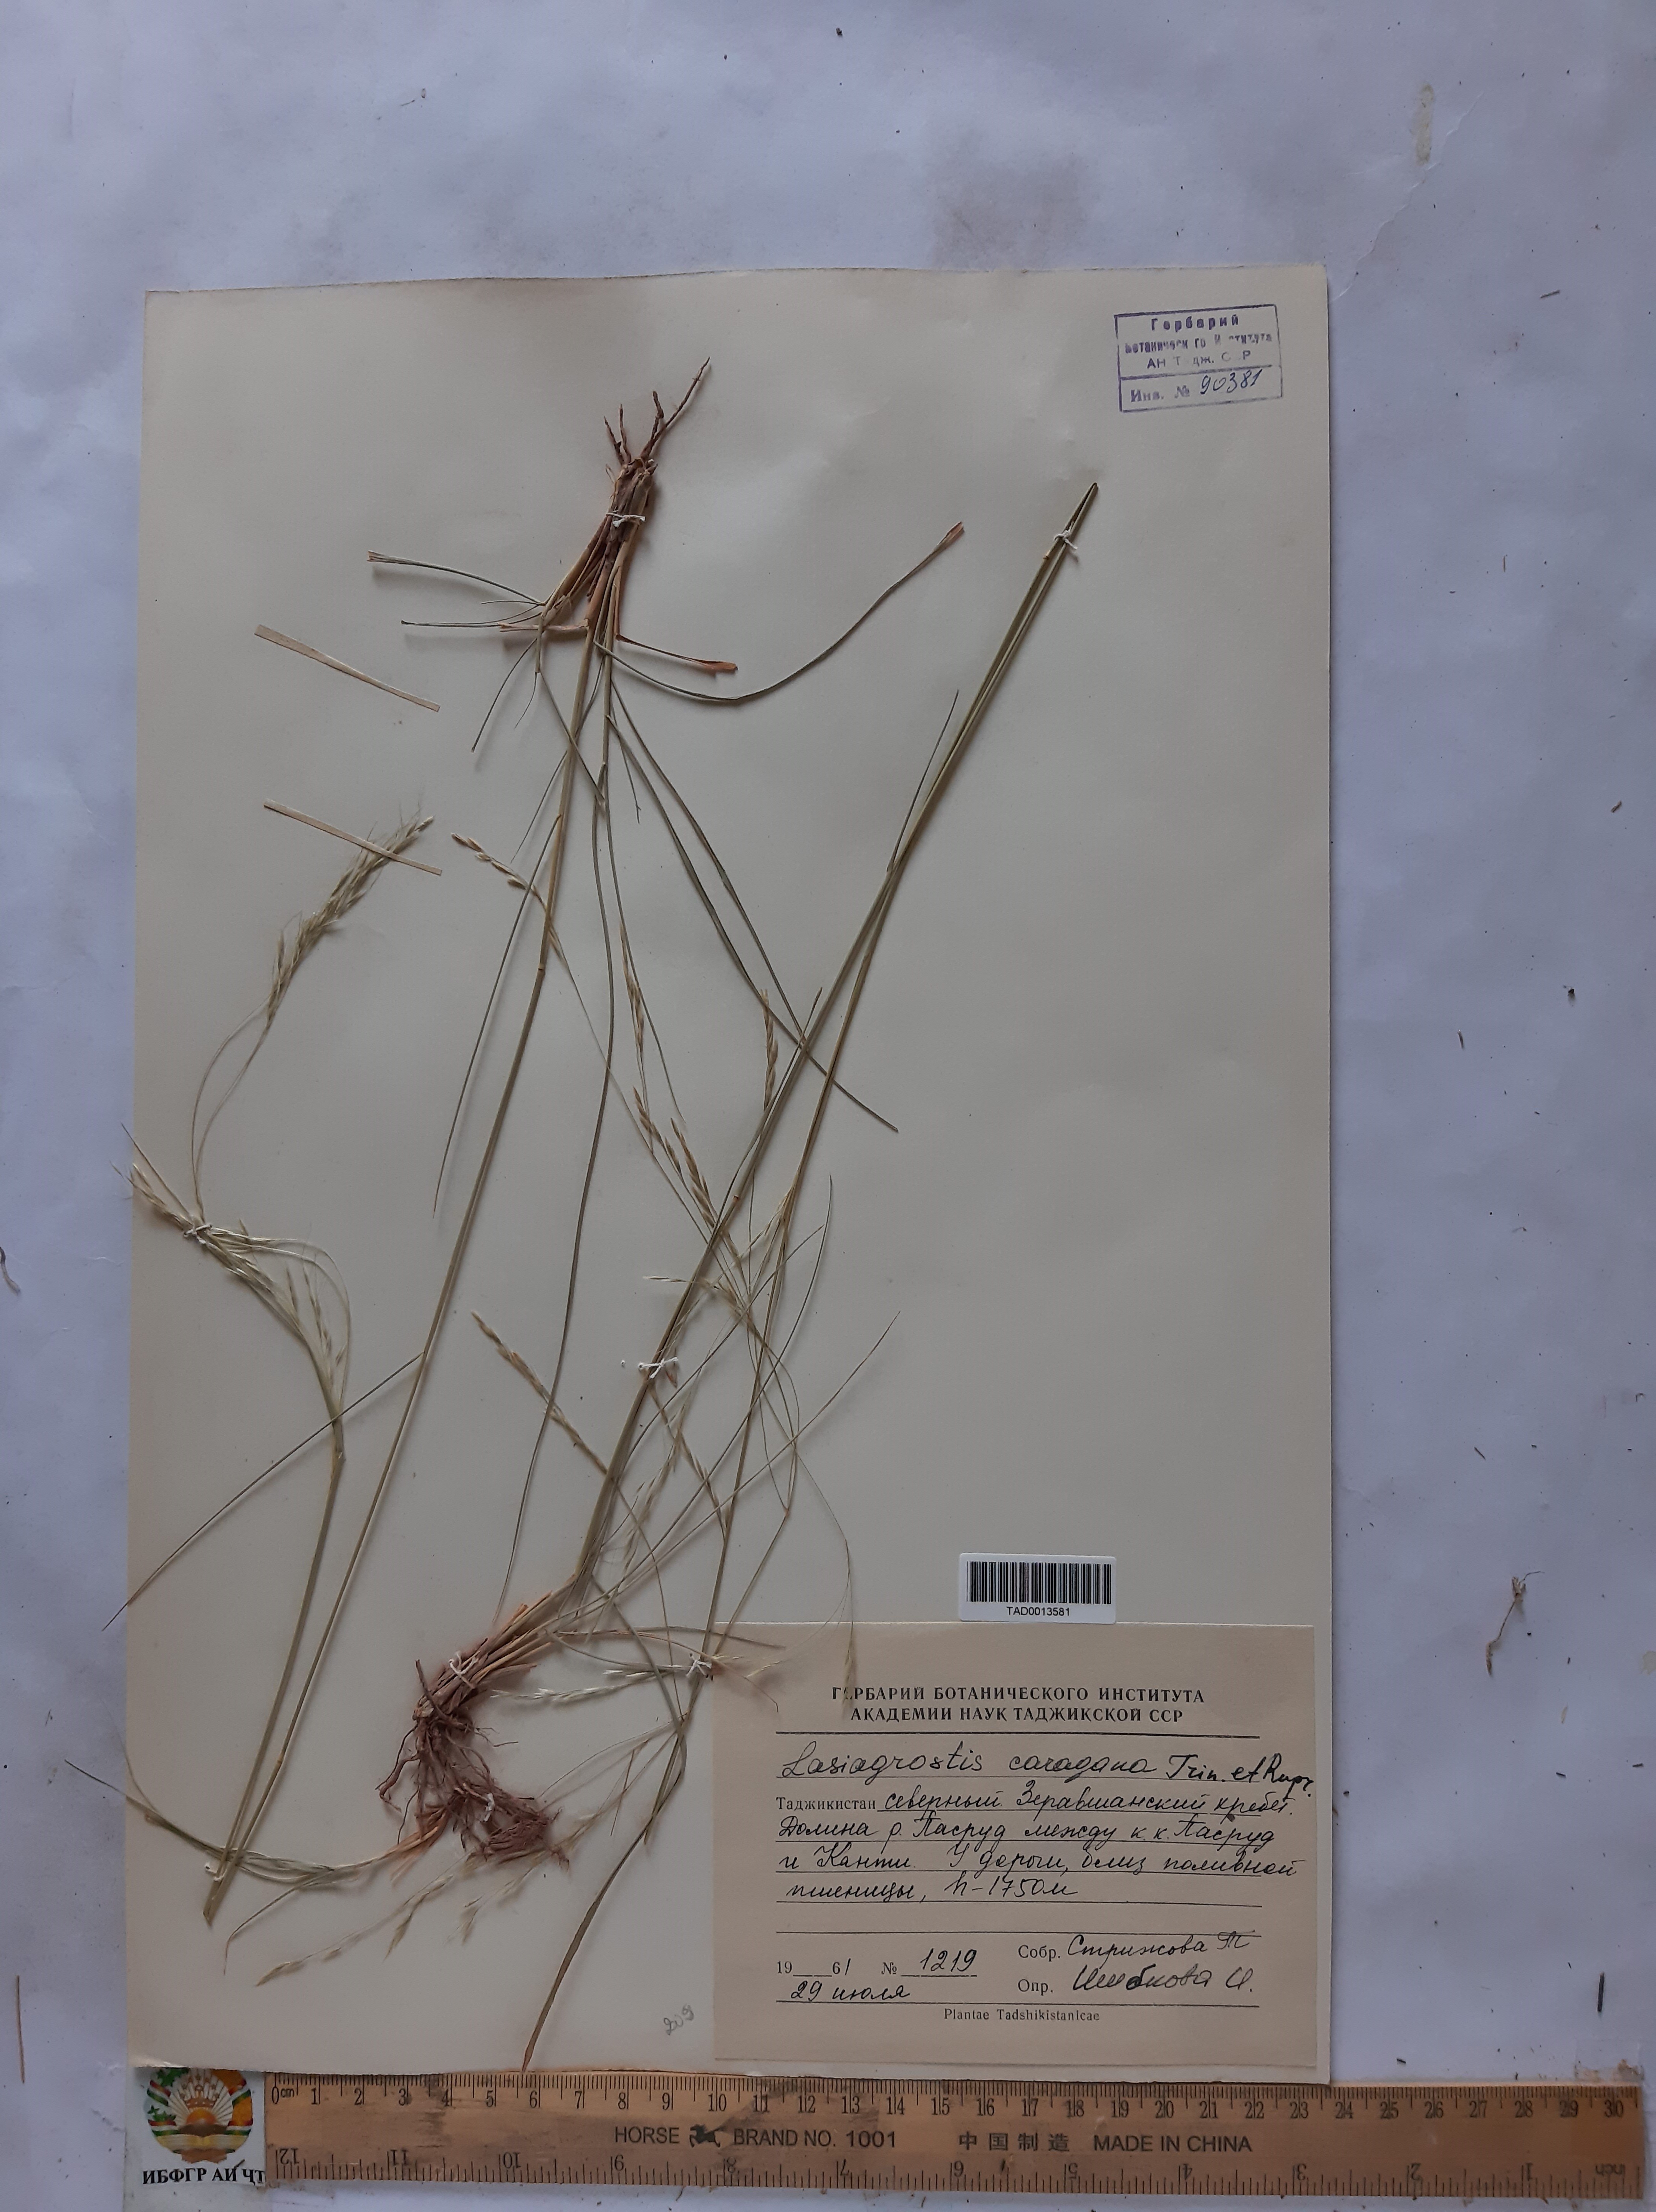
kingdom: Plantae
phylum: Tracheophyta
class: Liliopsida
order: Poales
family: Poaceae
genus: Stipa
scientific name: Stipa conferta
